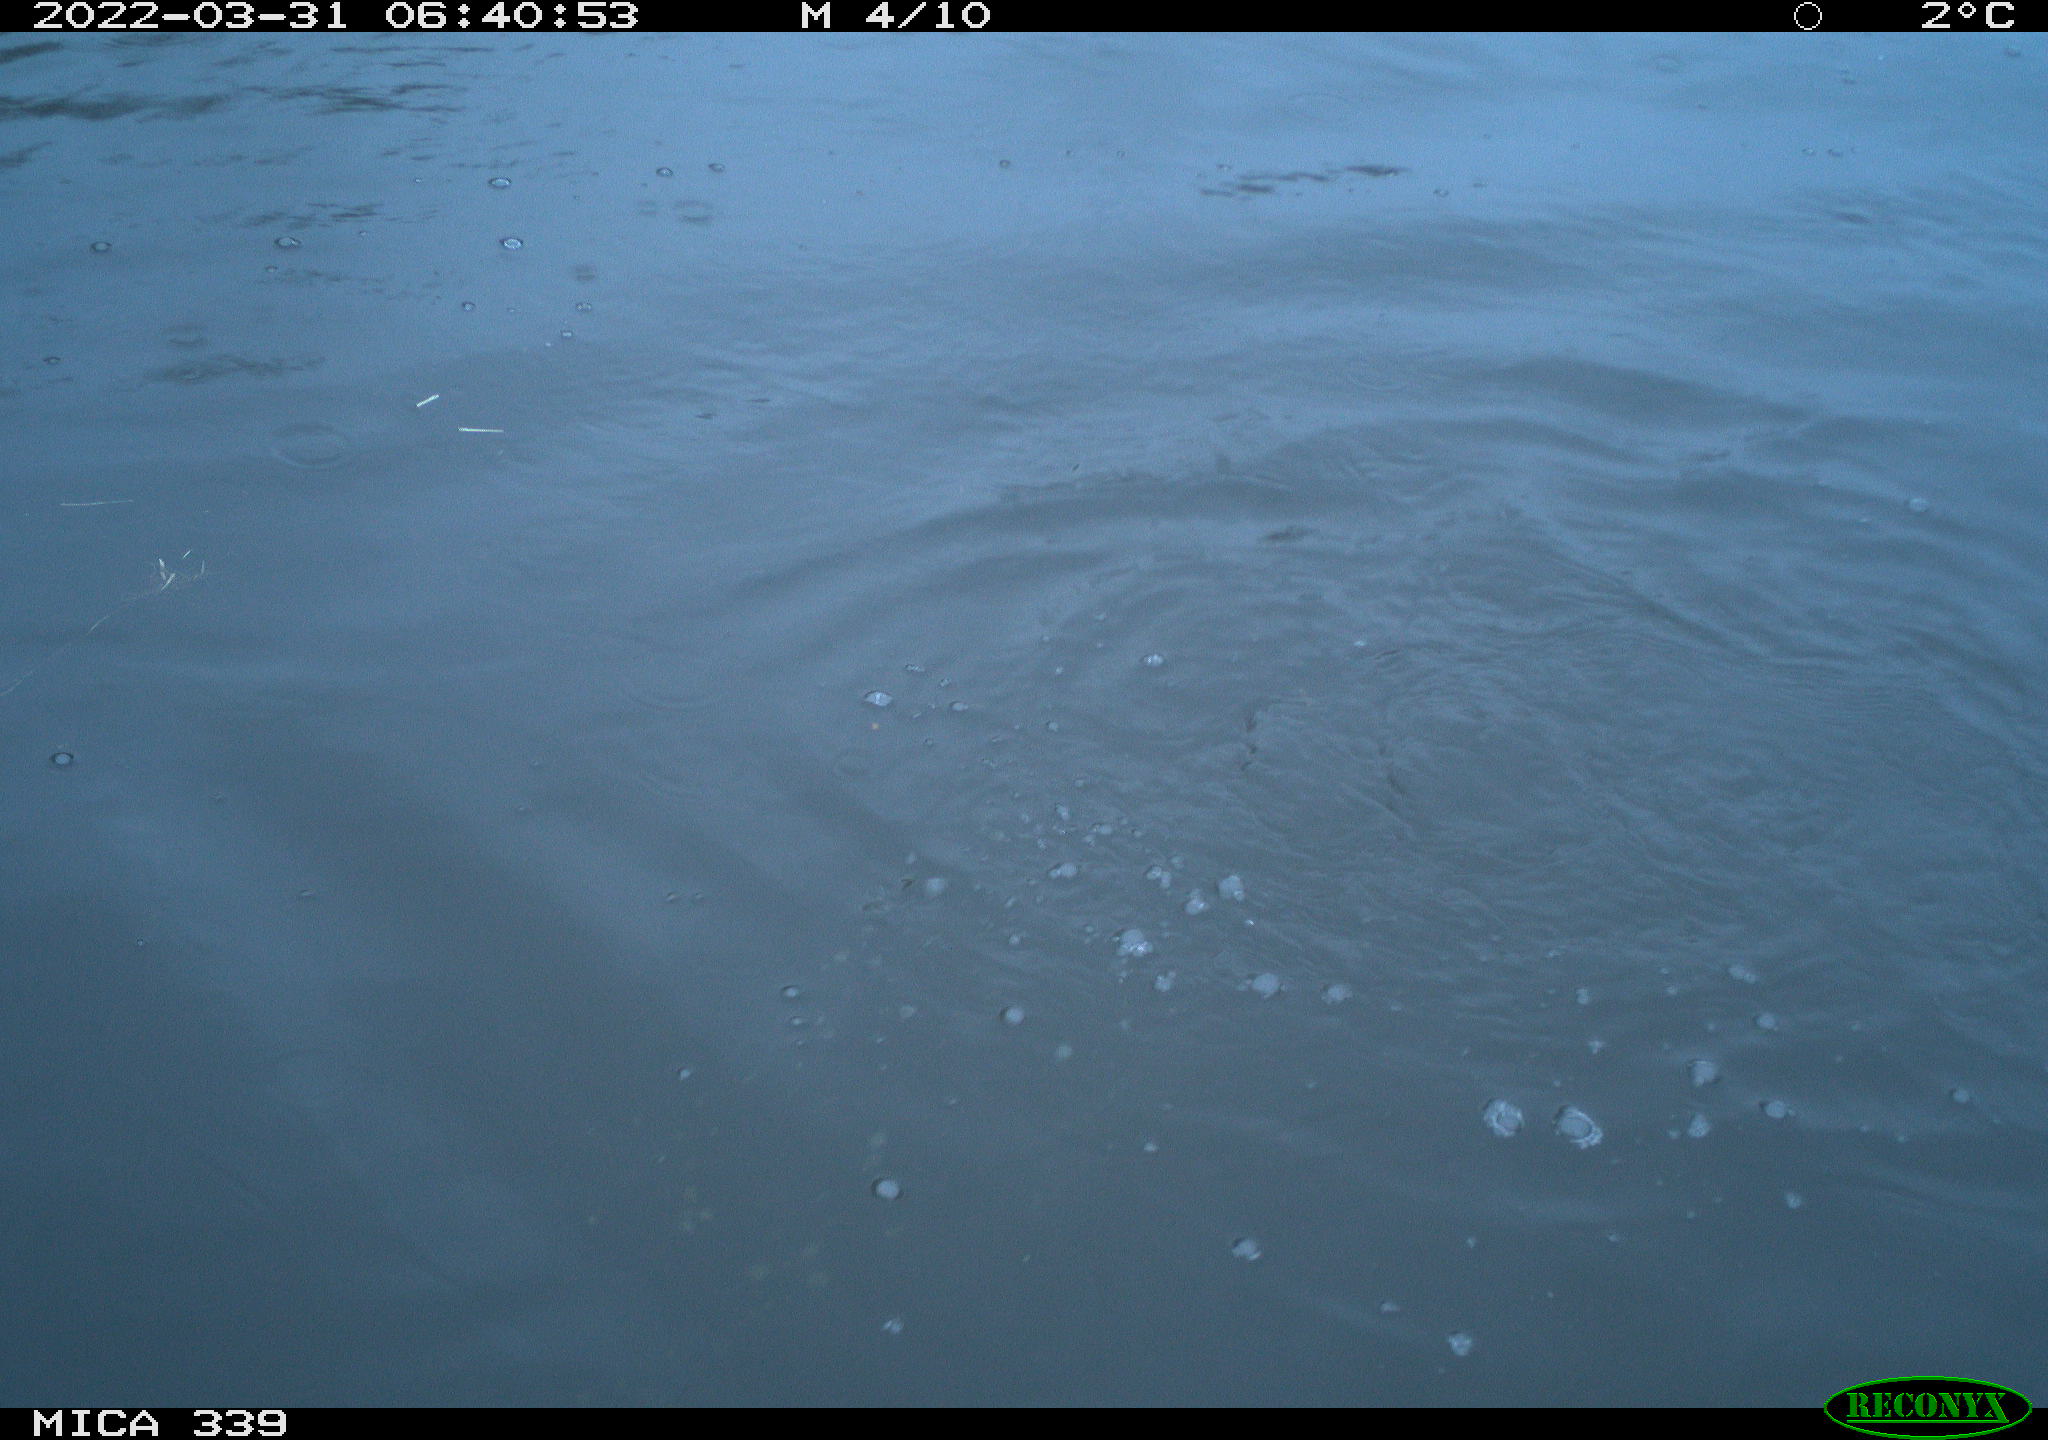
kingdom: Animalia
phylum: Chordata
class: Aves
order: Suliformes
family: Phalacrocoracidae
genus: Phalacrocorax
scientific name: Phalacrocorax carbo
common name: Great cormorant
